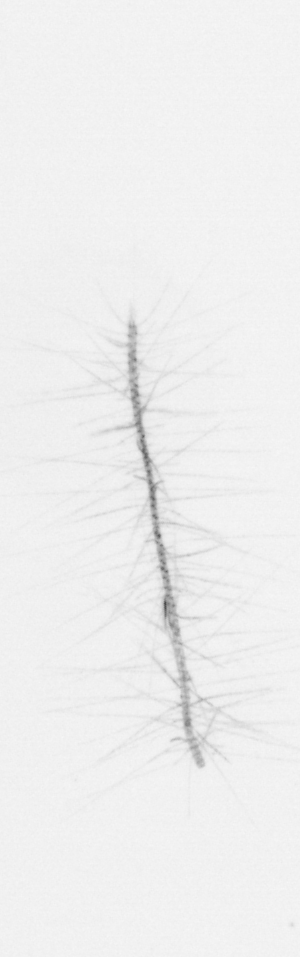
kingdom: Chromista
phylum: Ochrophyta
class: Bacillariophyceae
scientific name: Bacillariophyceae
